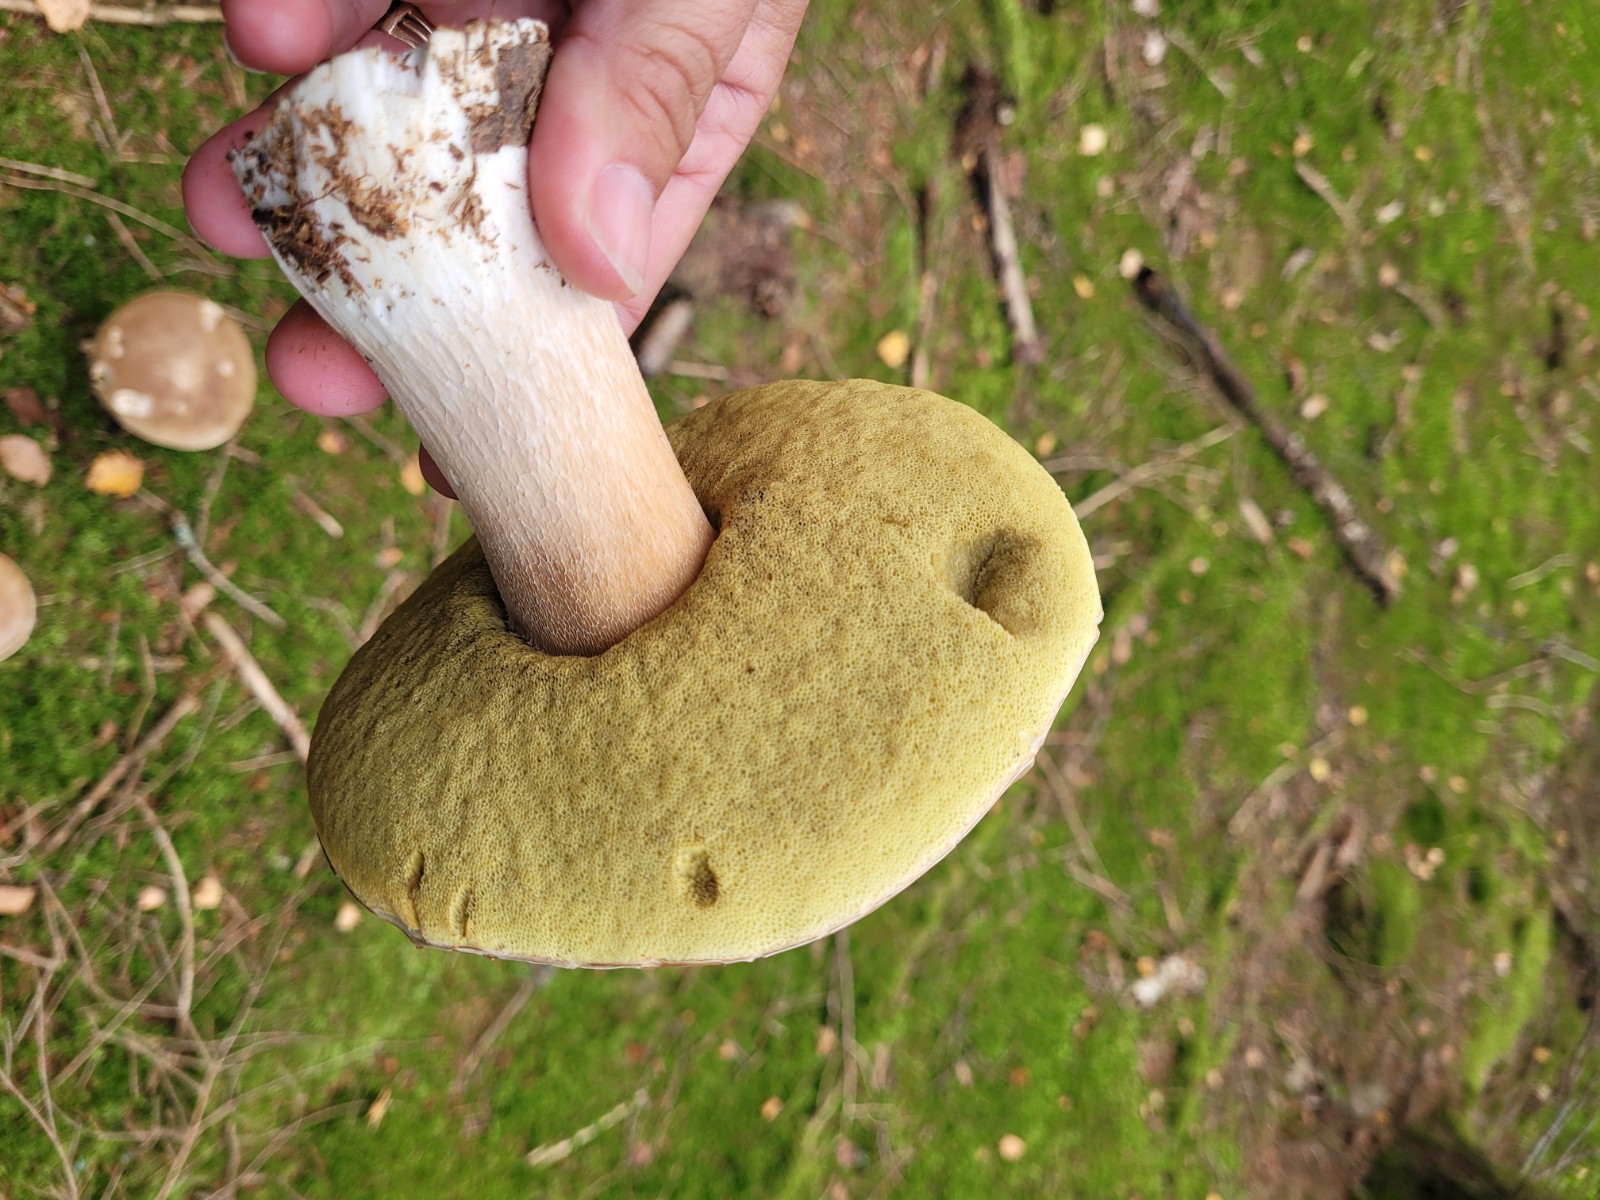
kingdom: Fungi
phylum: Basidiomycota
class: Agaricomycetes
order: Boletales
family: Boletaceae
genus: Boletus
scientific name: Boletus edulis
